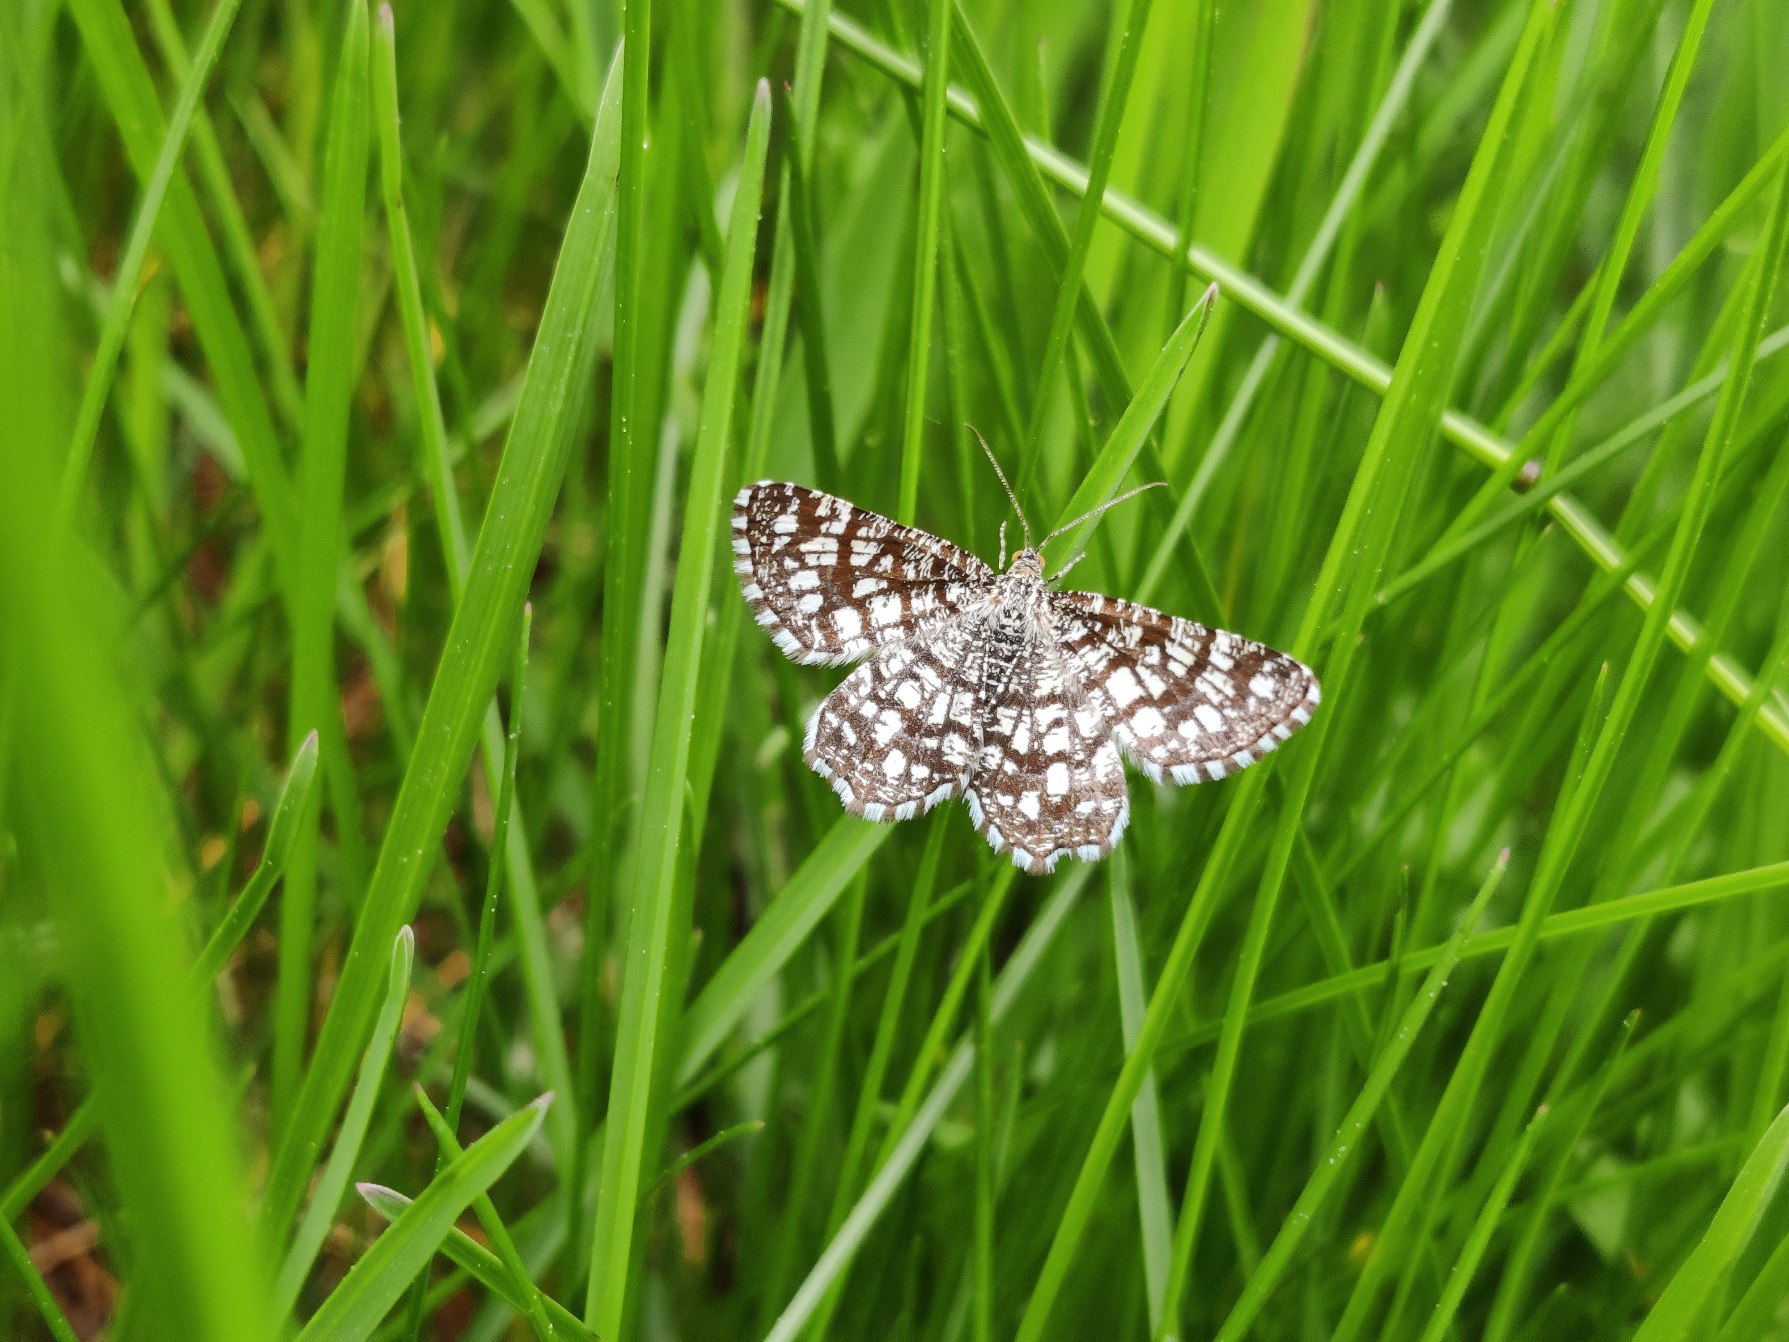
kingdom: Animalia
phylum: Arthropoda
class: Insecta
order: Lepidoptera
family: Geometridae
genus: Chiasmia
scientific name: Chiasmia clathrata
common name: Kløvermåler
